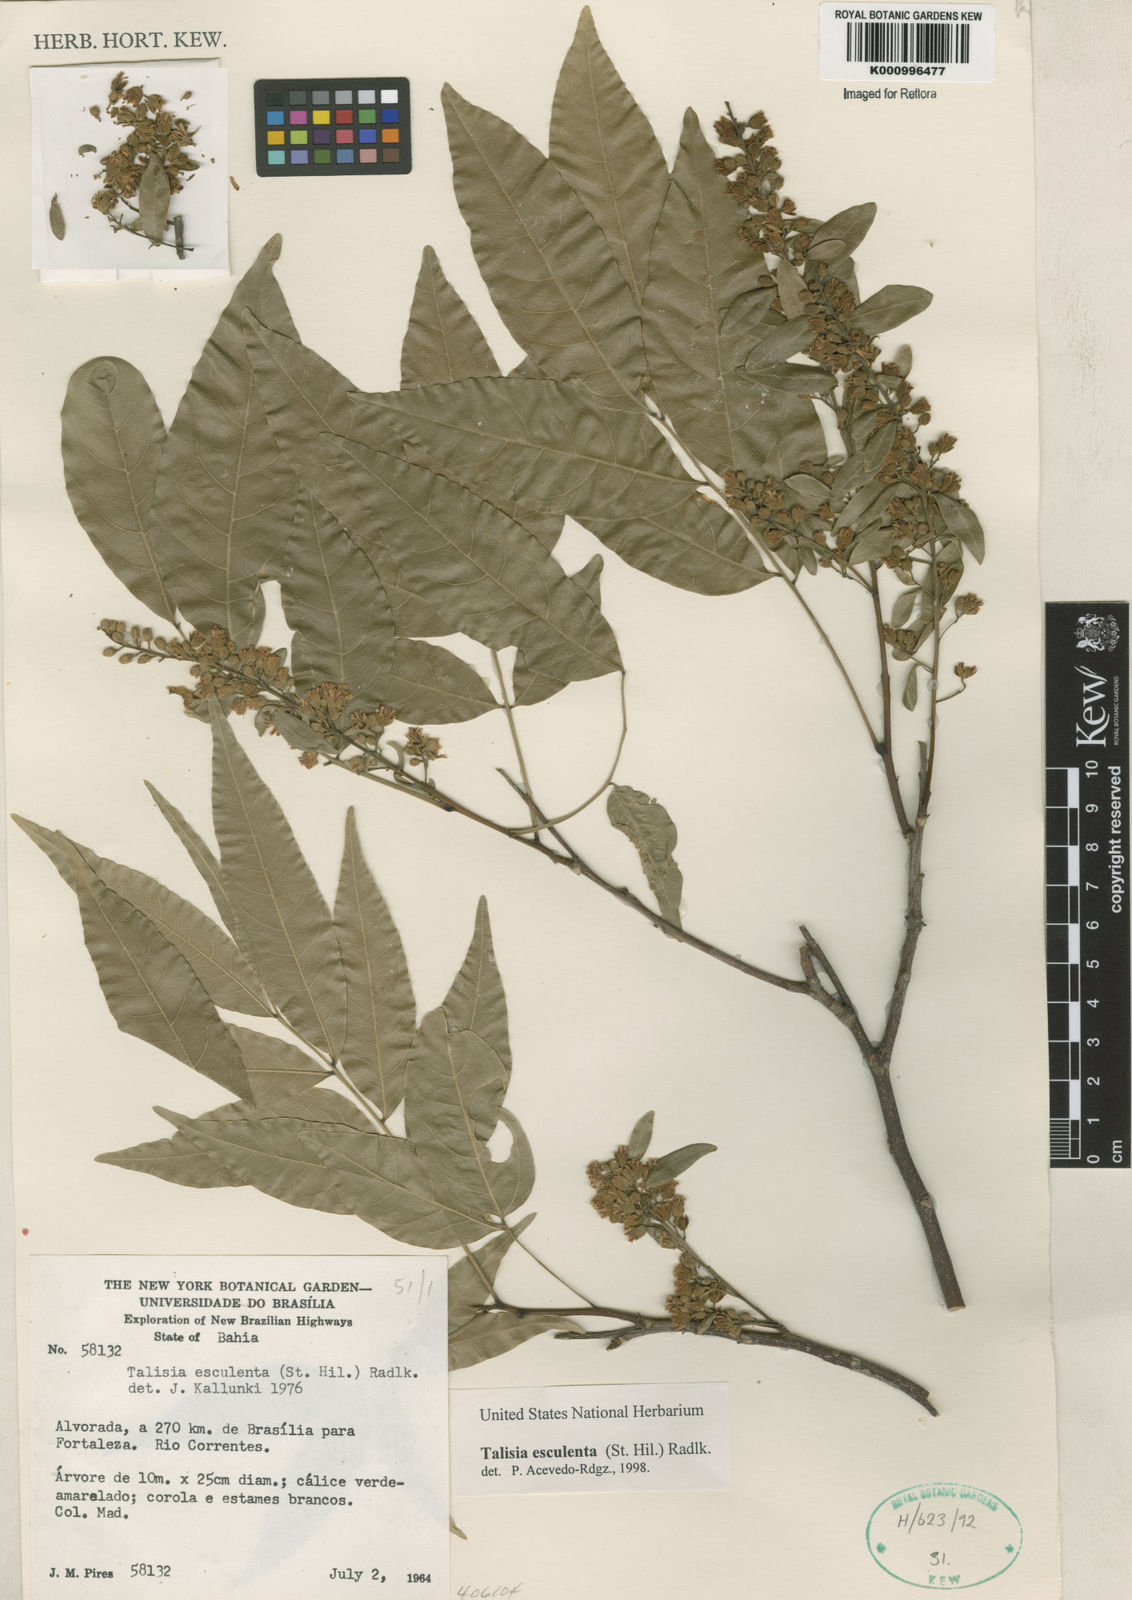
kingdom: Plantae
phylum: Tracheophyta
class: Magnoliopsida
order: Sapindales
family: Sapindaceae
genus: Talisia
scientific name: Talisia
